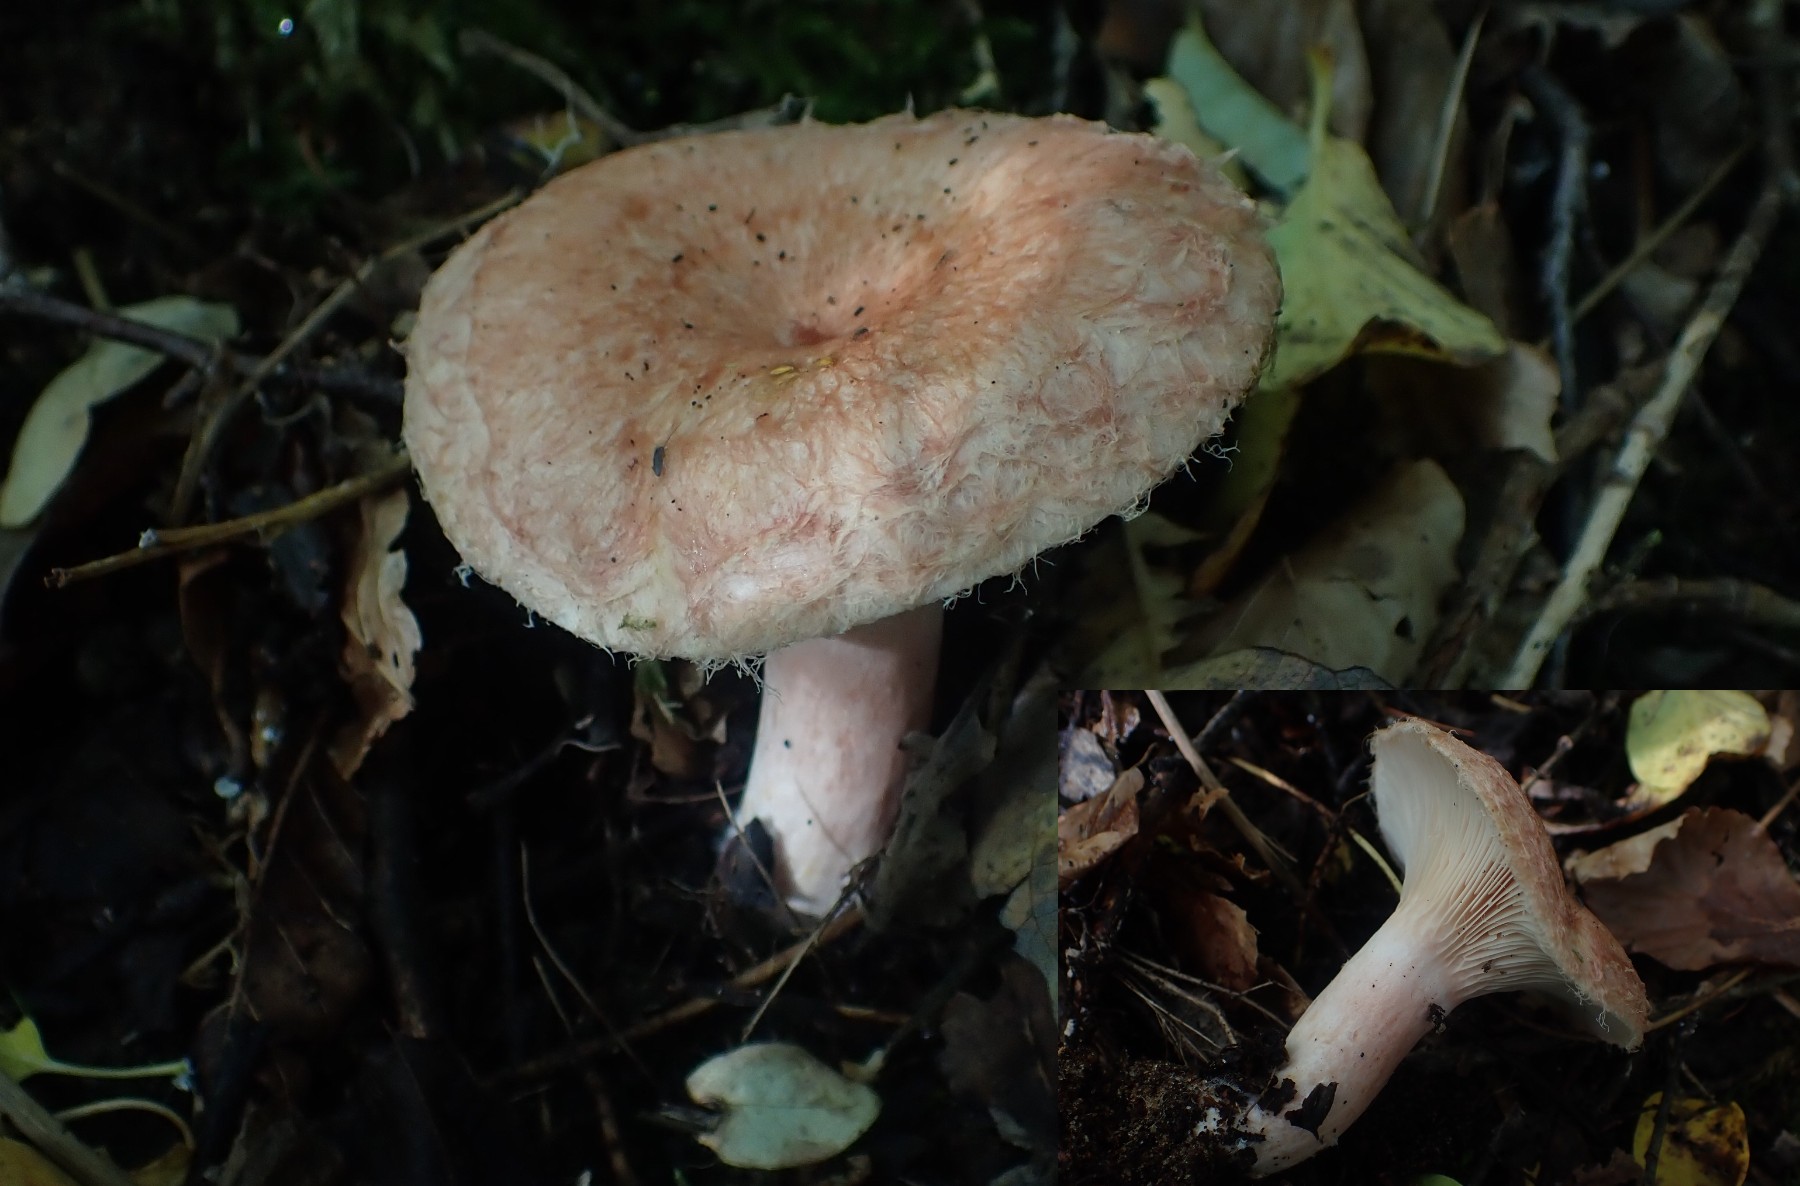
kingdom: Fungi
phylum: Basidiomycota
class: Agaricomycetes
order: Russulales
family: Russulaceae
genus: Lactarius
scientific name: Lactarius torminosus
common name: skægget mælkehat
